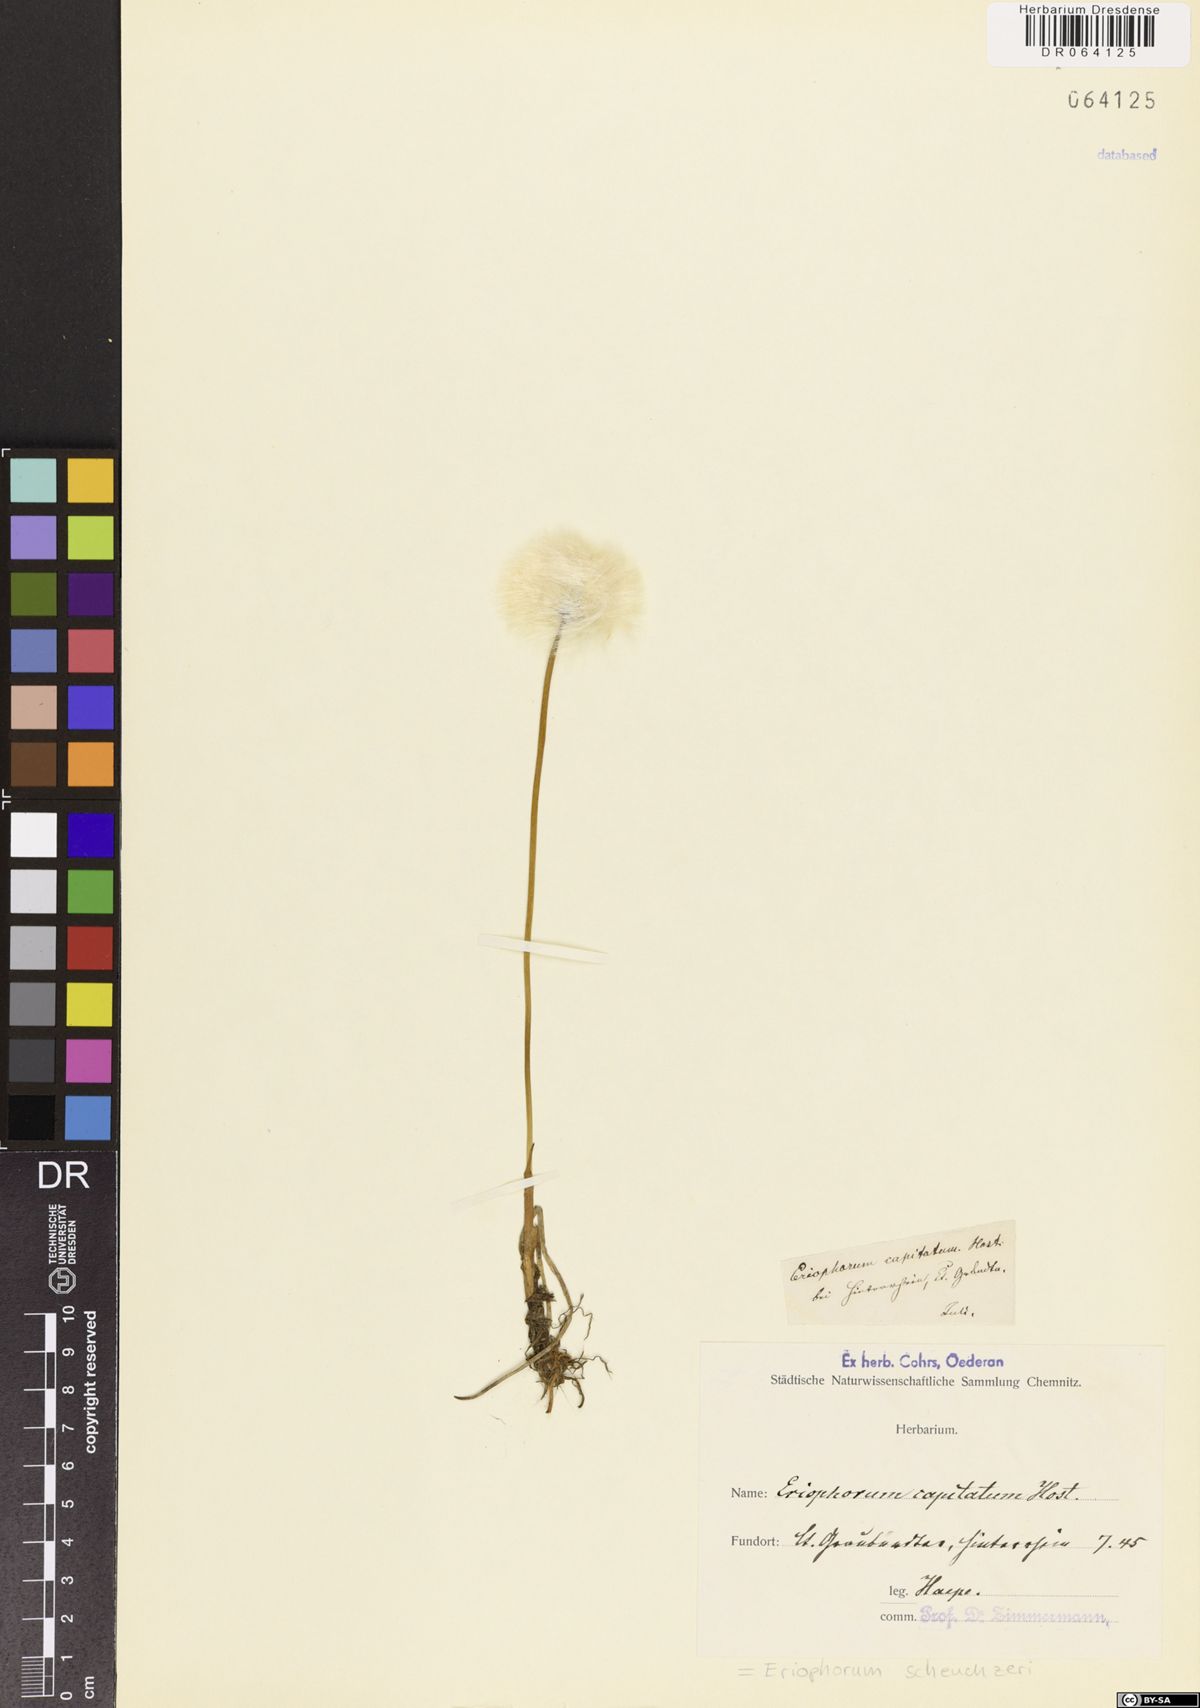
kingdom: Plantae
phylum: Tracheophyta
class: Liliopsida
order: Poales
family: Cyperaceae
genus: Eriophorum
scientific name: Eriophorum scheuchzeri
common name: Scheuchzer's cottongrass
